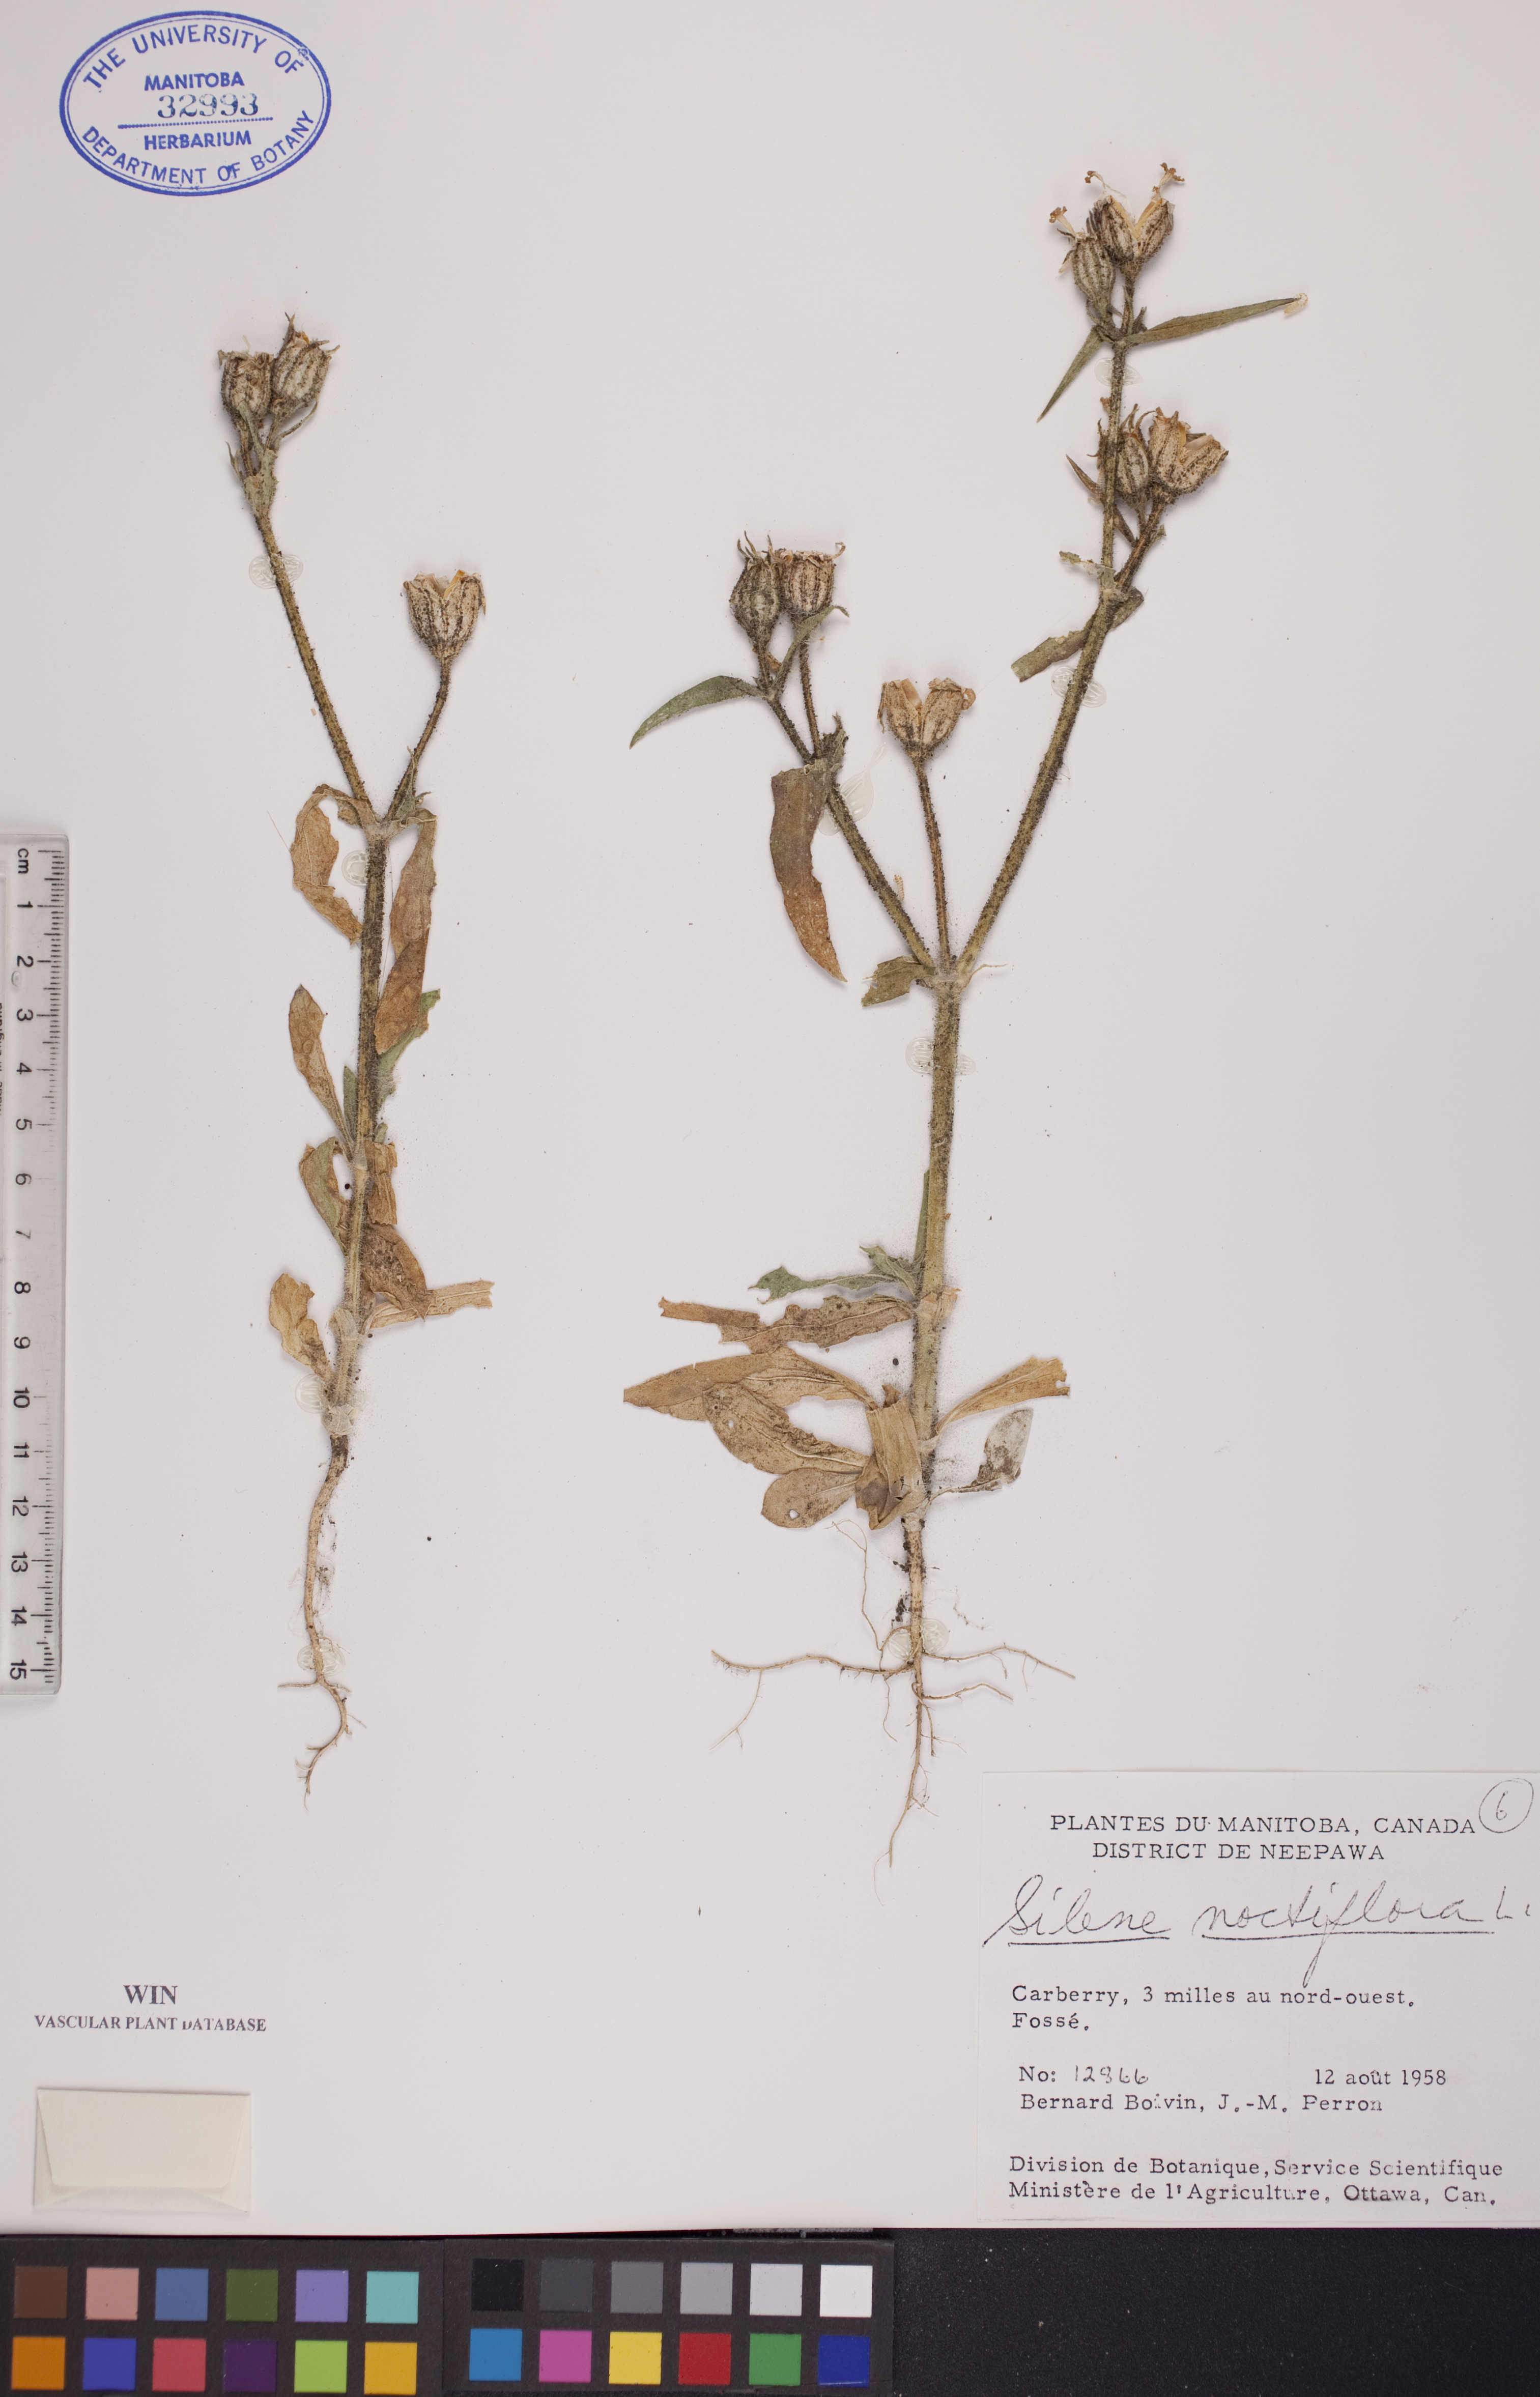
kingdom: Plantae
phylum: Tracheophyta
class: Magnoliopsida
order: Caryophyllales
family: Caryophyllaceae
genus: Silene
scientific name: Silene noctiflora
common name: Night-flowering catchfly
